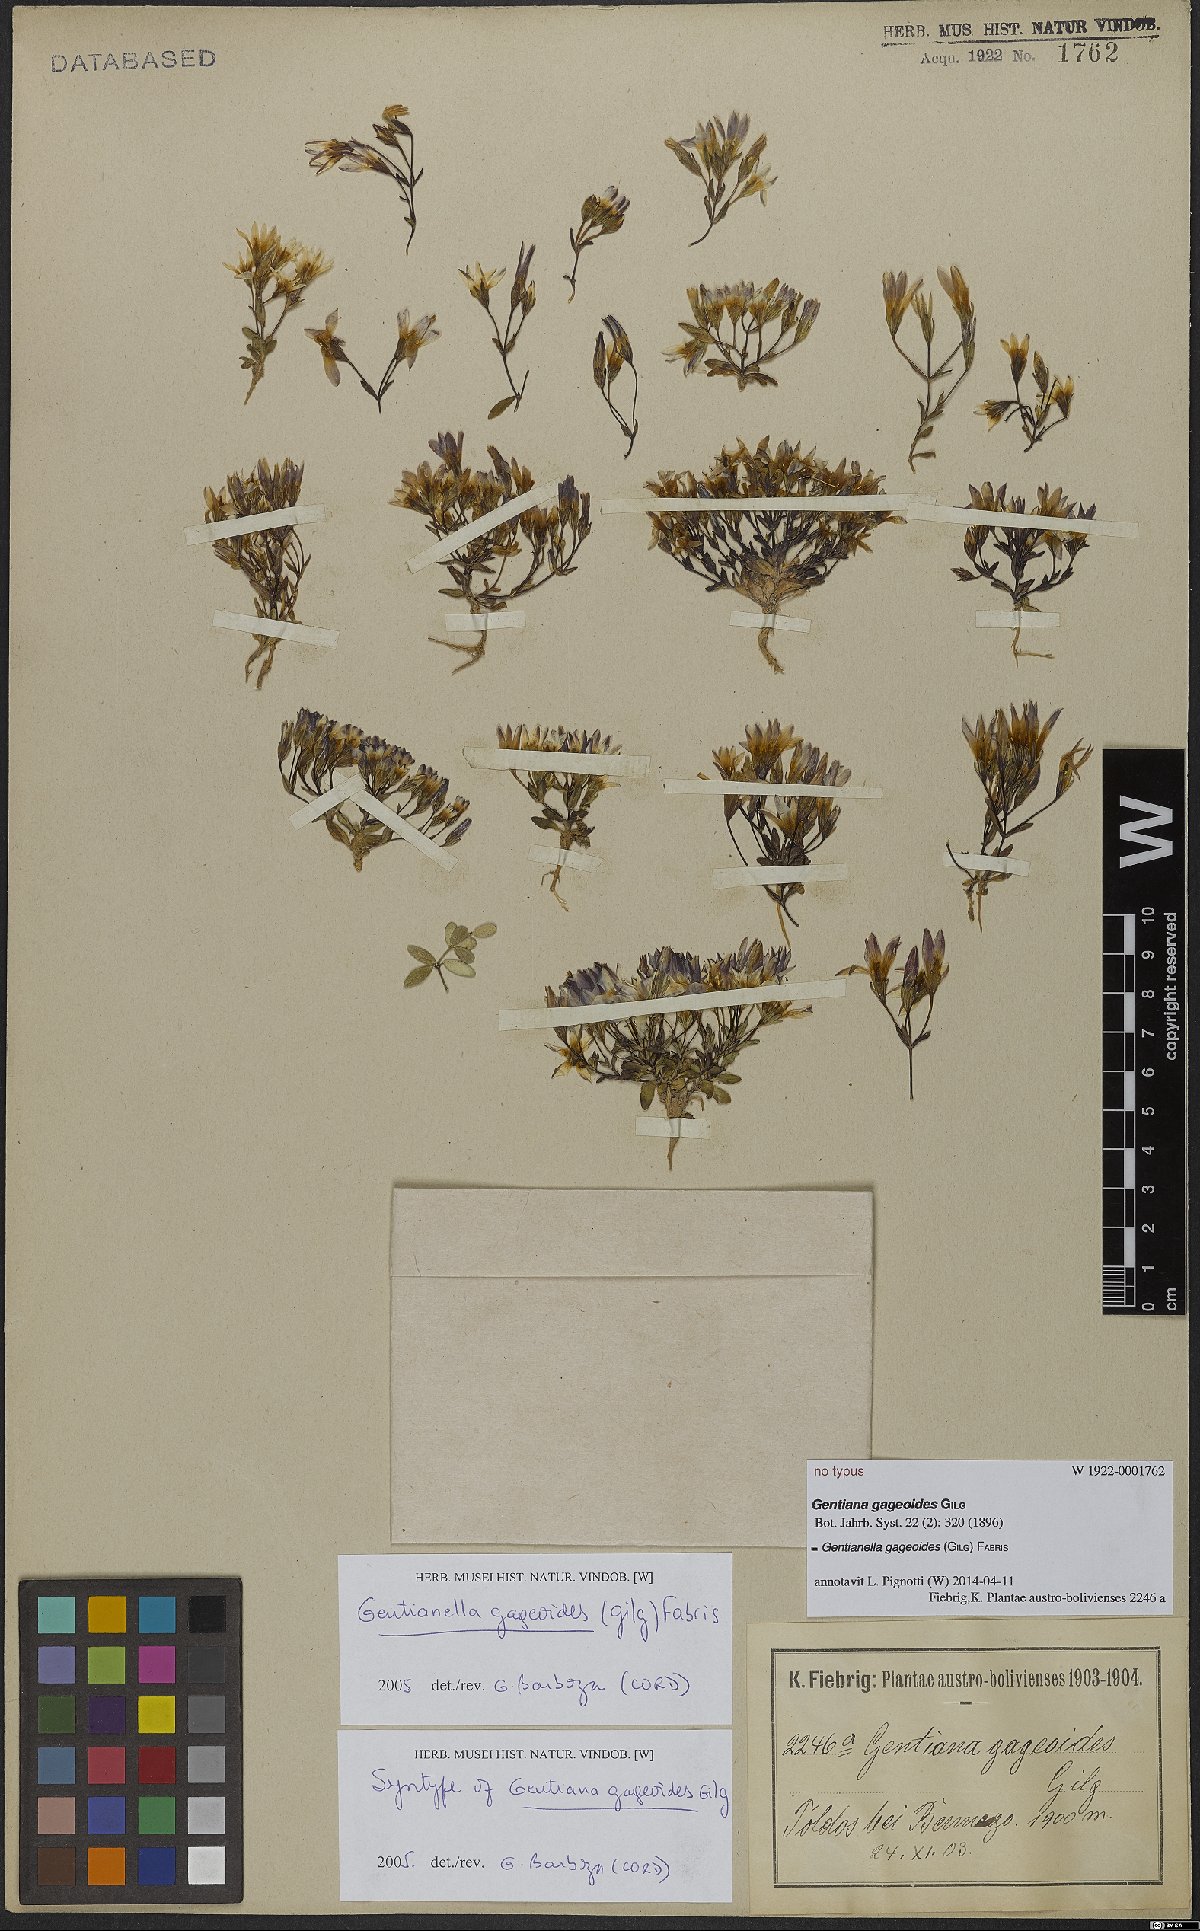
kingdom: Plantae
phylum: Tracheophyta
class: Magnoliopsida
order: Gentianales
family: Gentianaceae
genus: Gentianella
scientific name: Gentianella gageoides
